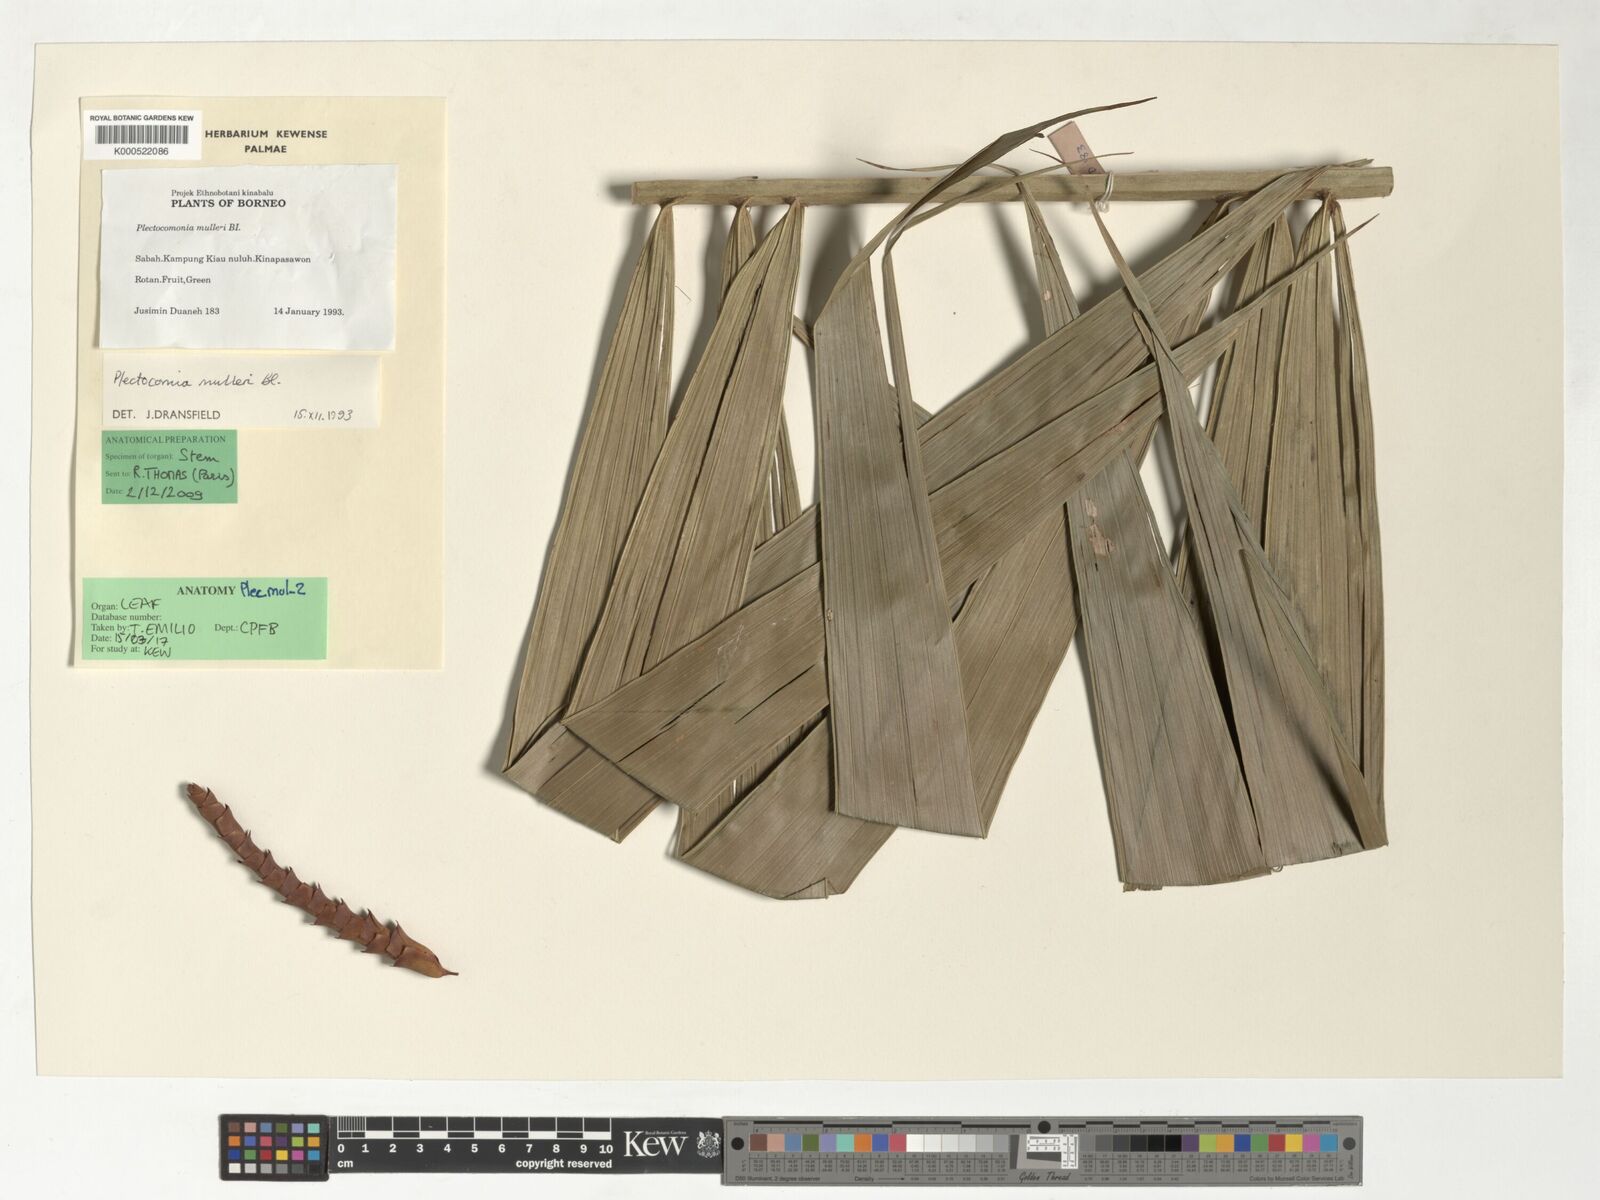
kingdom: Plantae
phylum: Tracheophyta
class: Liliopsida
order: Arecales
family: Arecaceae
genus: Plectocomia
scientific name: Plectocomia mulleri
